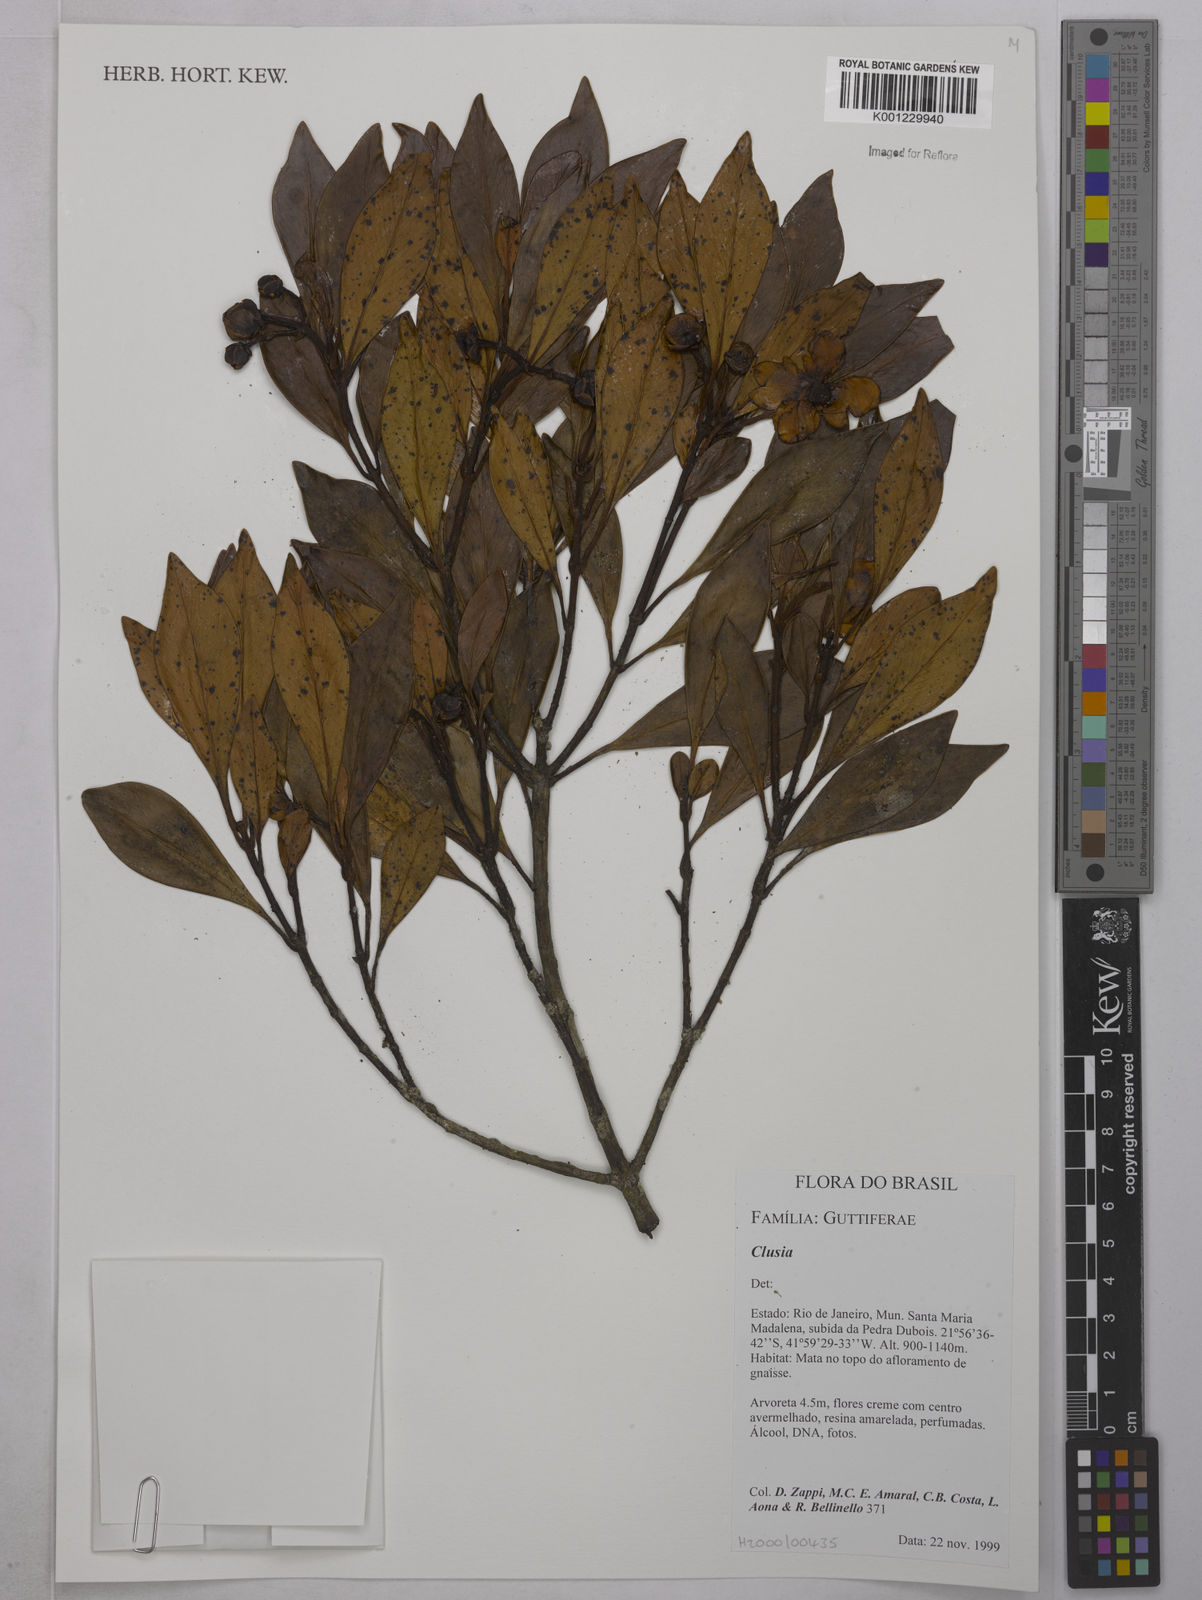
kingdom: Plantae
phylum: Tracheophyta
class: Magnoliopsida
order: Malpighiales
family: Clusiaceae
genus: Clusia
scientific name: Clusia
